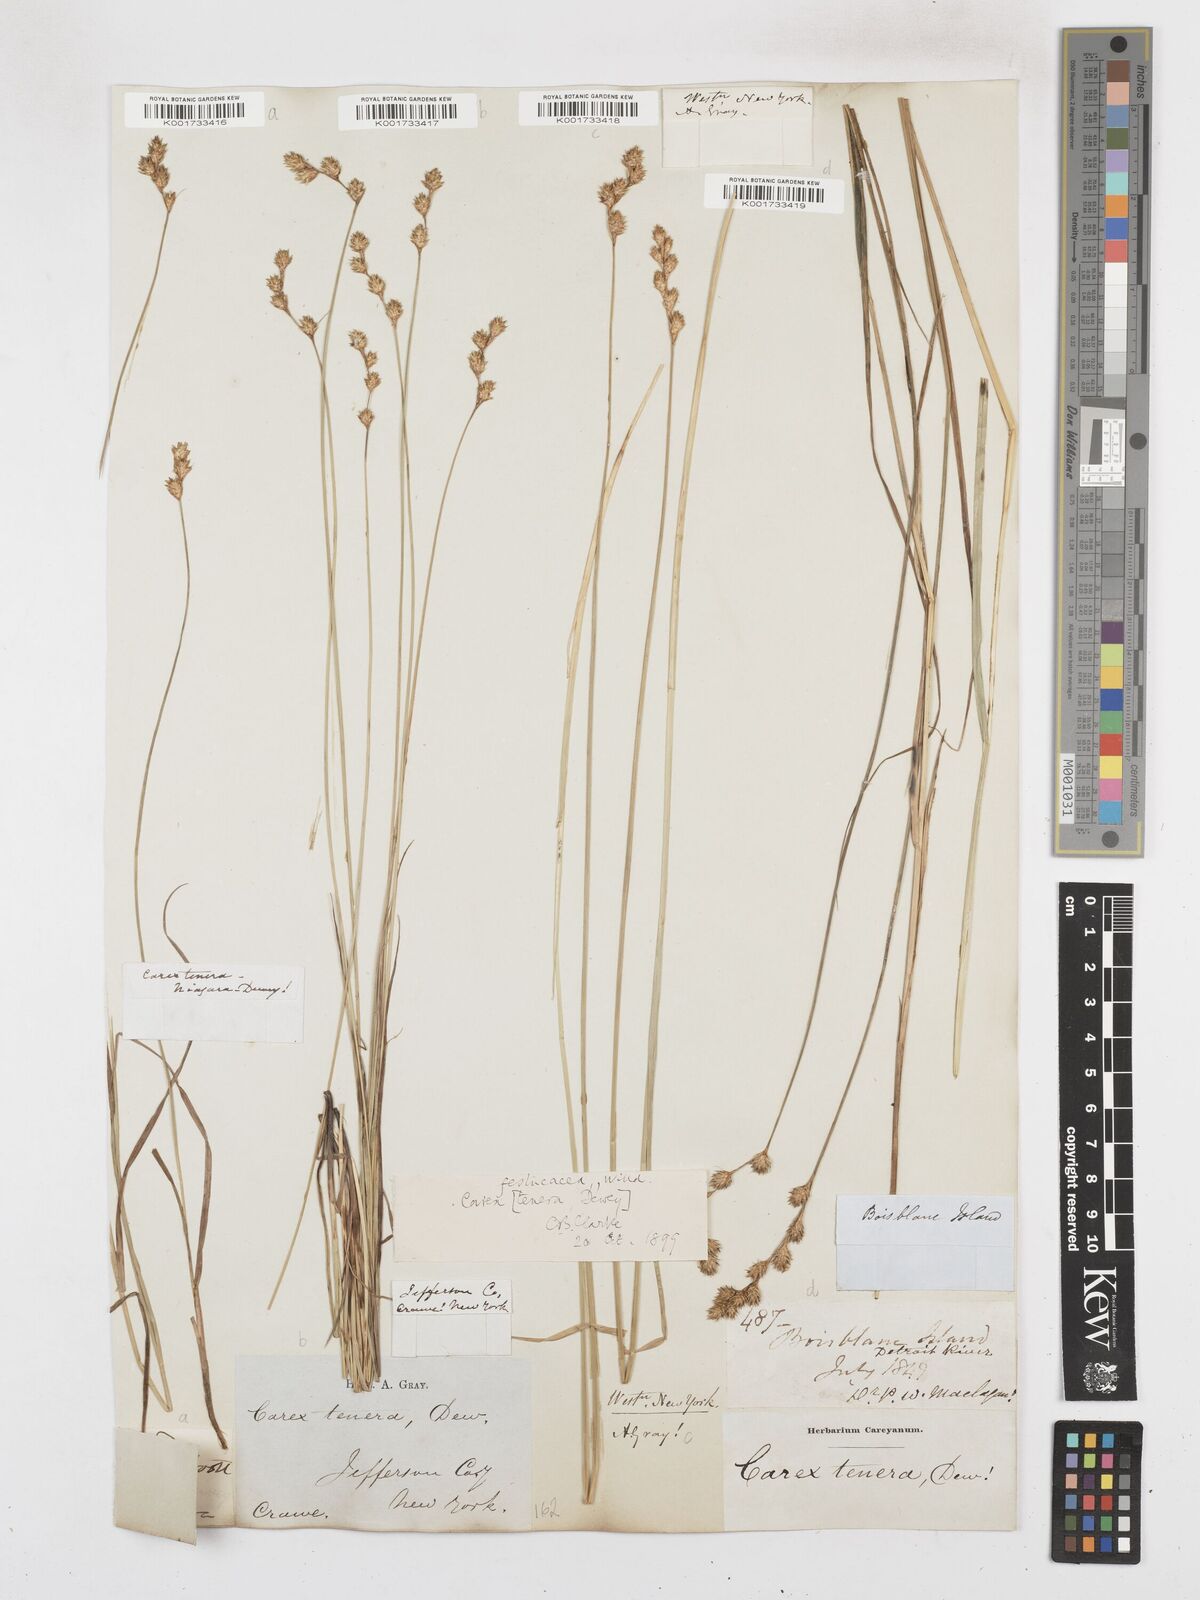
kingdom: Plantae
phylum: Tracheophyta
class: Liliopsida
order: Poales
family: Cyperaceae
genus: Carex
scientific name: Carex tenera
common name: Broad-fruited sedge
